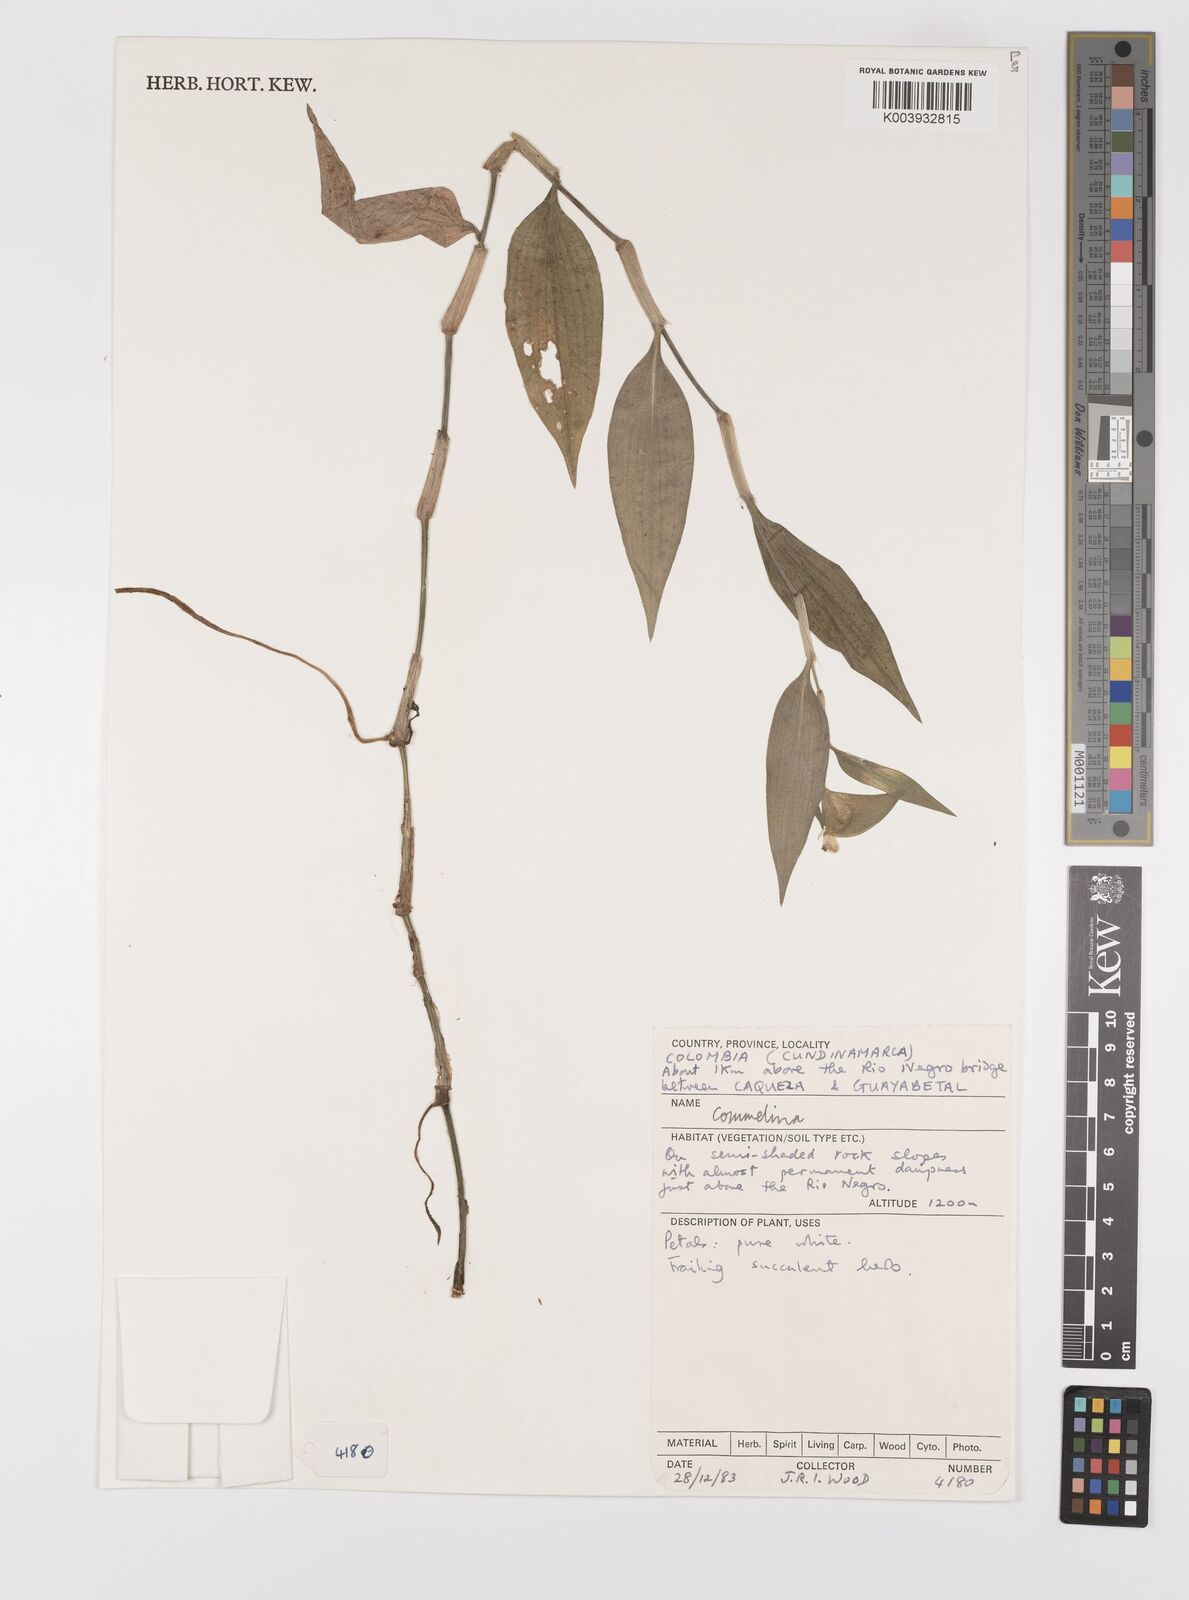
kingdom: Plantae
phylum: Tracheophyta
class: Liliopsida
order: Commelinales
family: Commelinaceae
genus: Commelina
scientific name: Commelina
